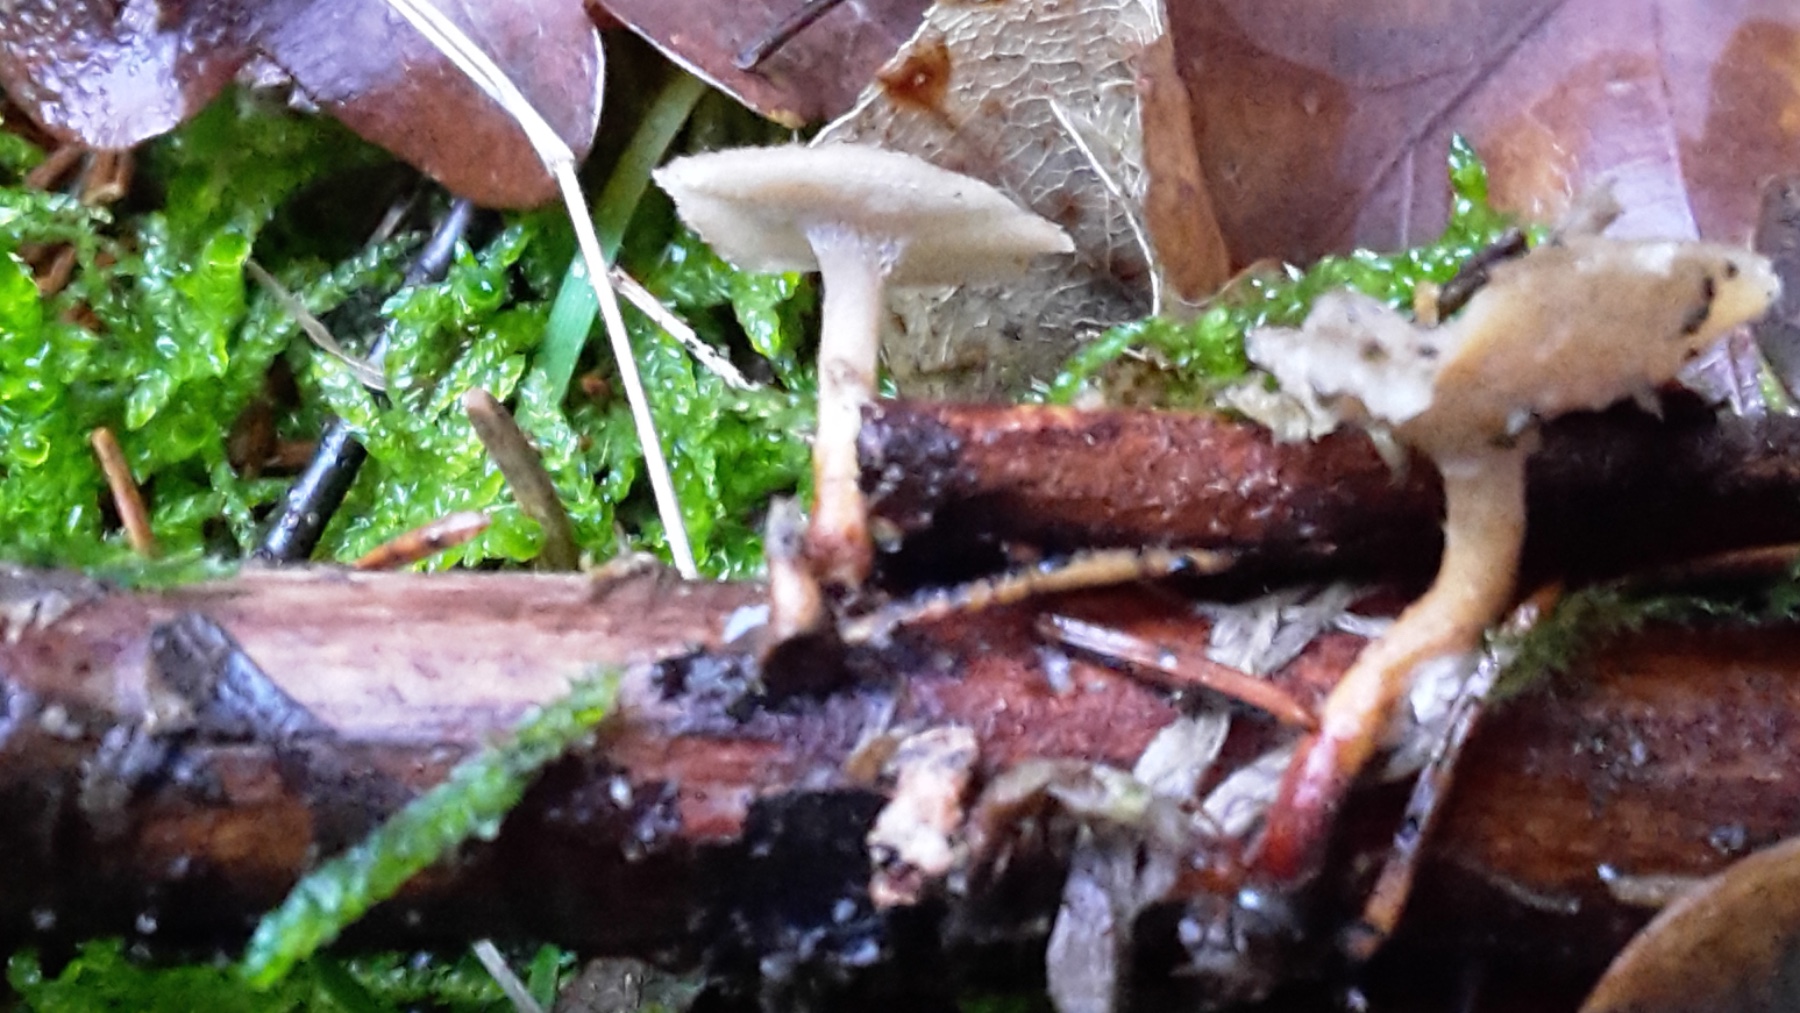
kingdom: Fungi
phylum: Basidiomycota
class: Agaricomycetes
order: Polyporales
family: Polyporaceae
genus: Lentinus
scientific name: Lentinus brumalis
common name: vinter-stilkporesvamp
